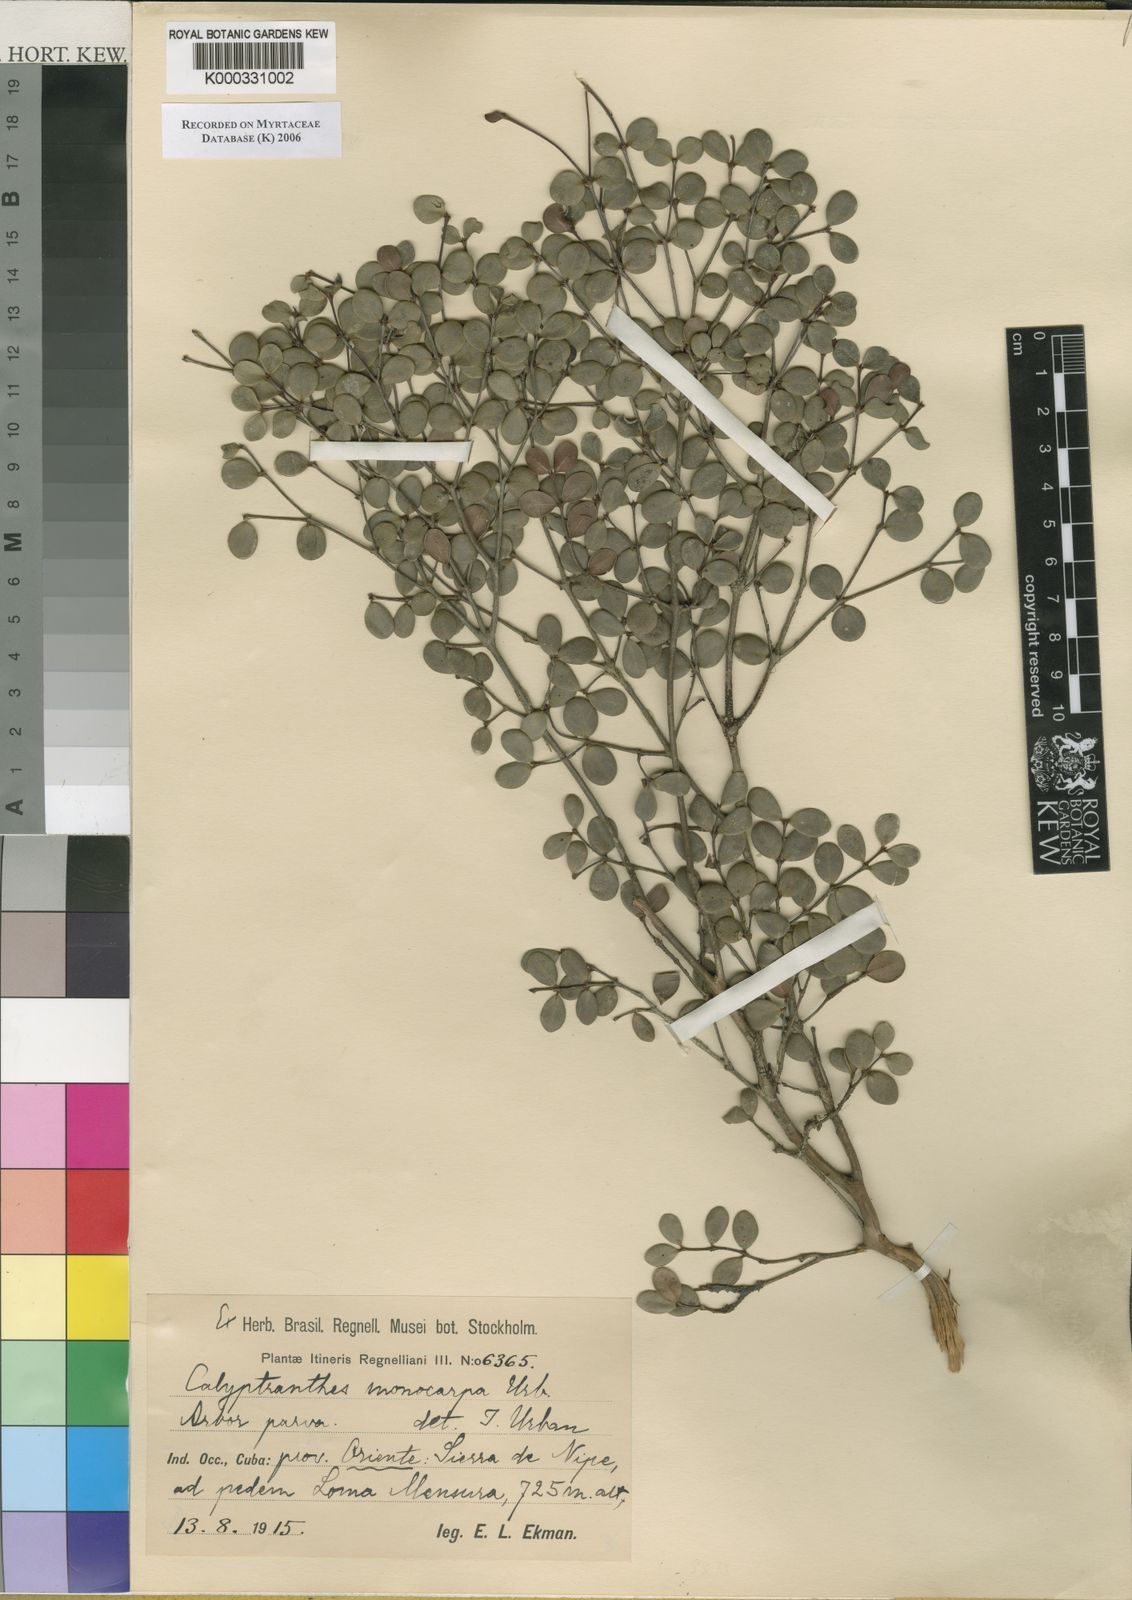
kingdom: Plantae
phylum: Tracheophyta
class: Magnoliopsida
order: Myrtales
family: Myrtaceae
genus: Myrcia
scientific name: Myrcia monocarpa
